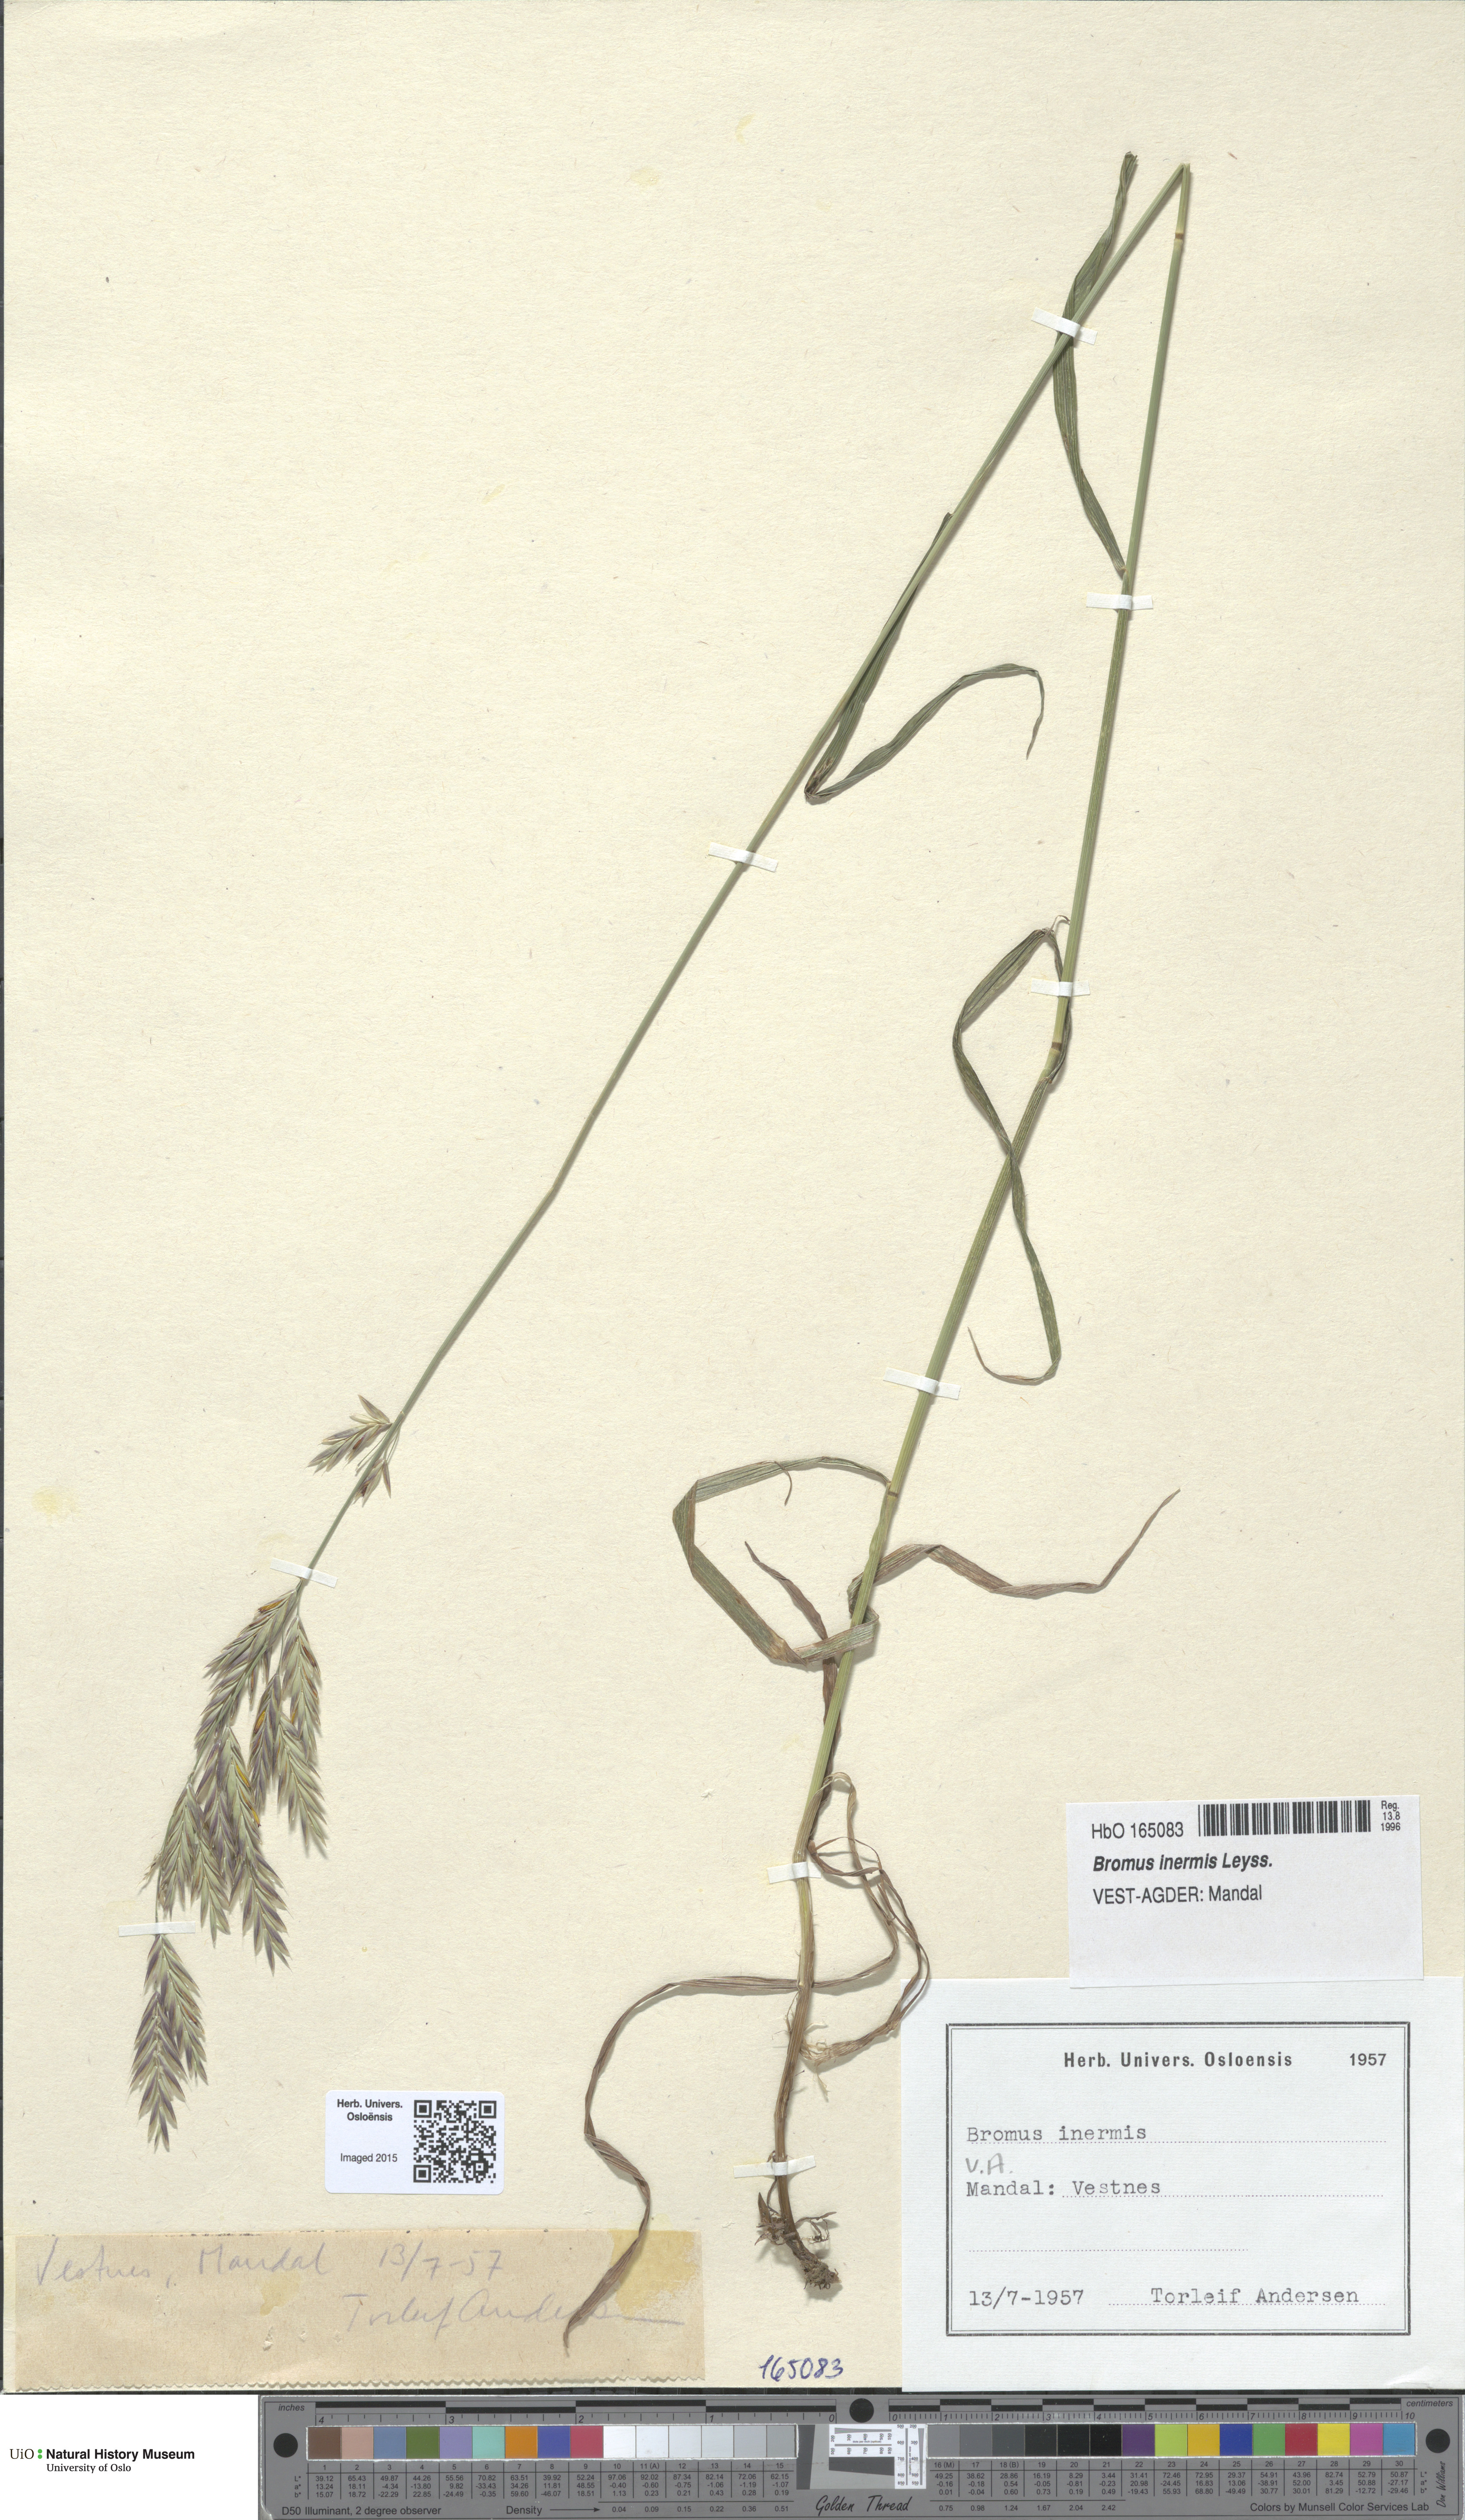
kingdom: Plantae
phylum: Tracheophyta
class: Liliopsida
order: Poales
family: Poaceae
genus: Bromus
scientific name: Bromus inermis
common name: Smooth brome
